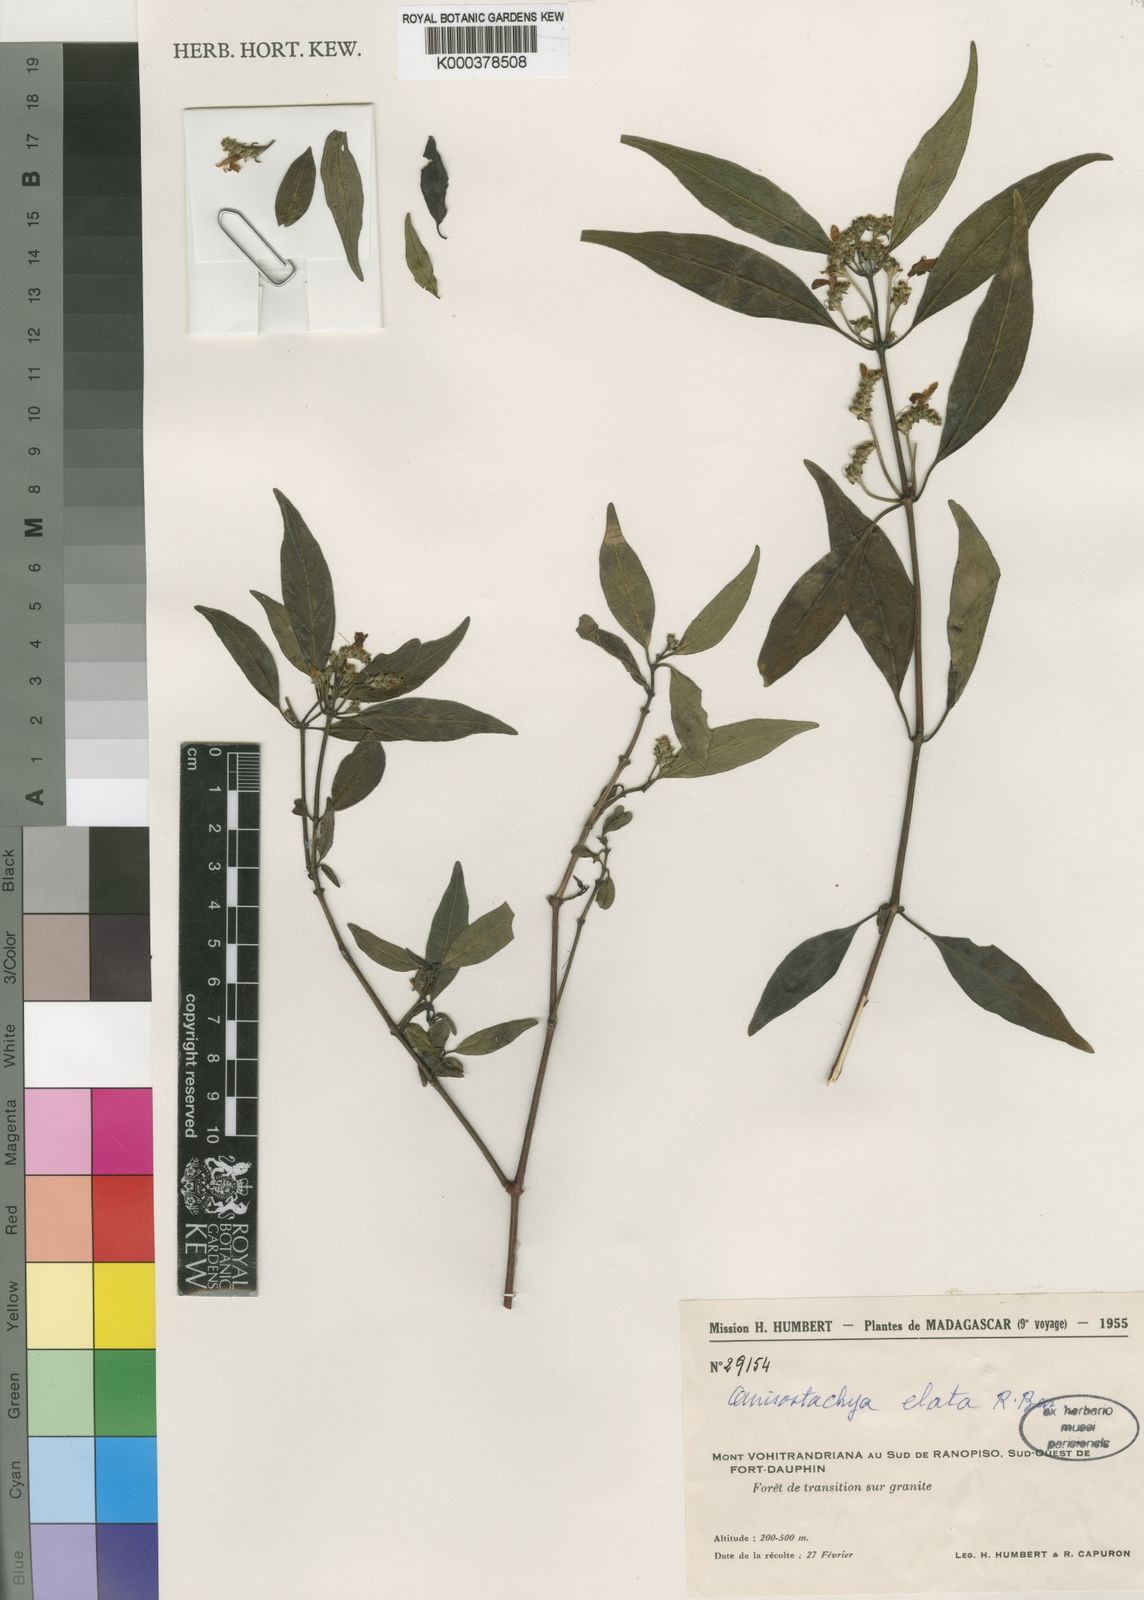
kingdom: Plantae
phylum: Tracheophyta
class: Magnoliopsida
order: Lamiales
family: Acanthaceae
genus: Justicia
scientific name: Justicia
